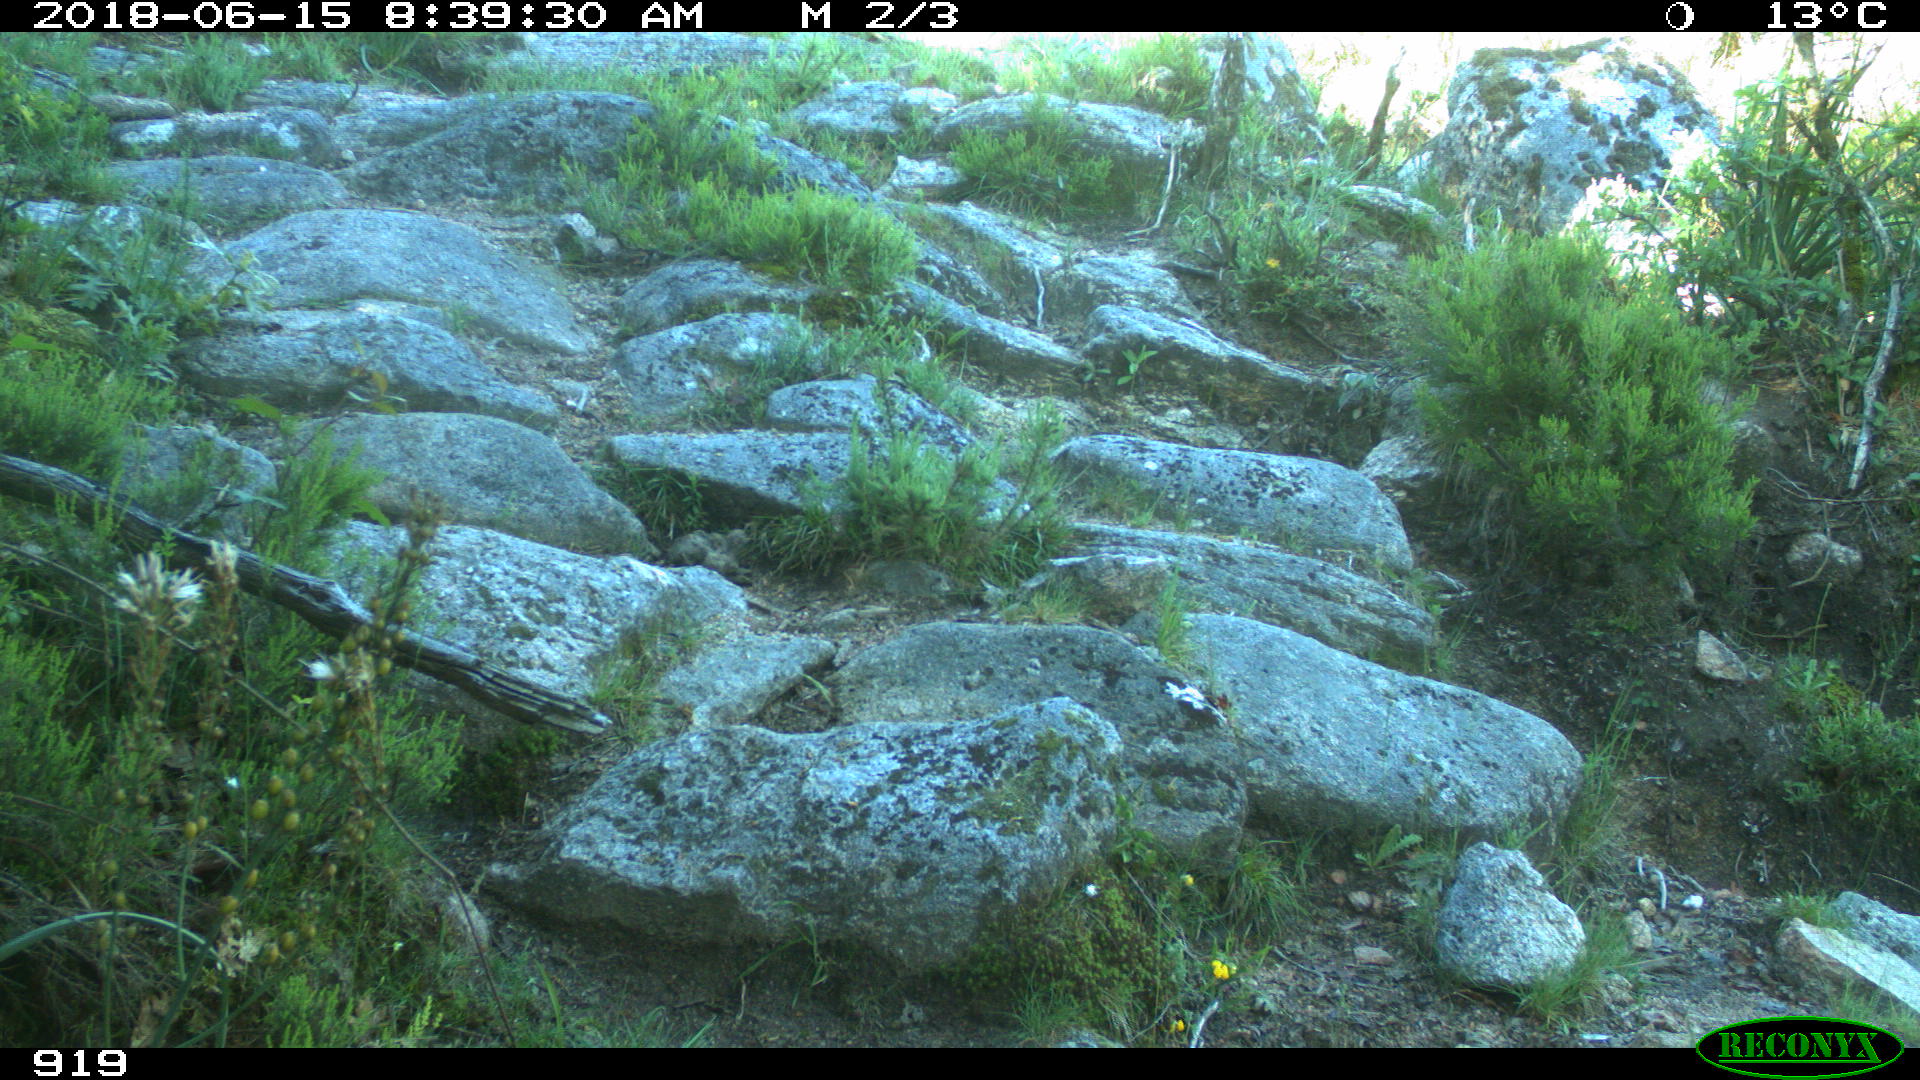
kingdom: Animalia
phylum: Chordata
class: Mammalia
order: Artiodactyla
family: Bovidae
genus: Bos
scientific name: Bos taurus
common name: Domesticated cattle
